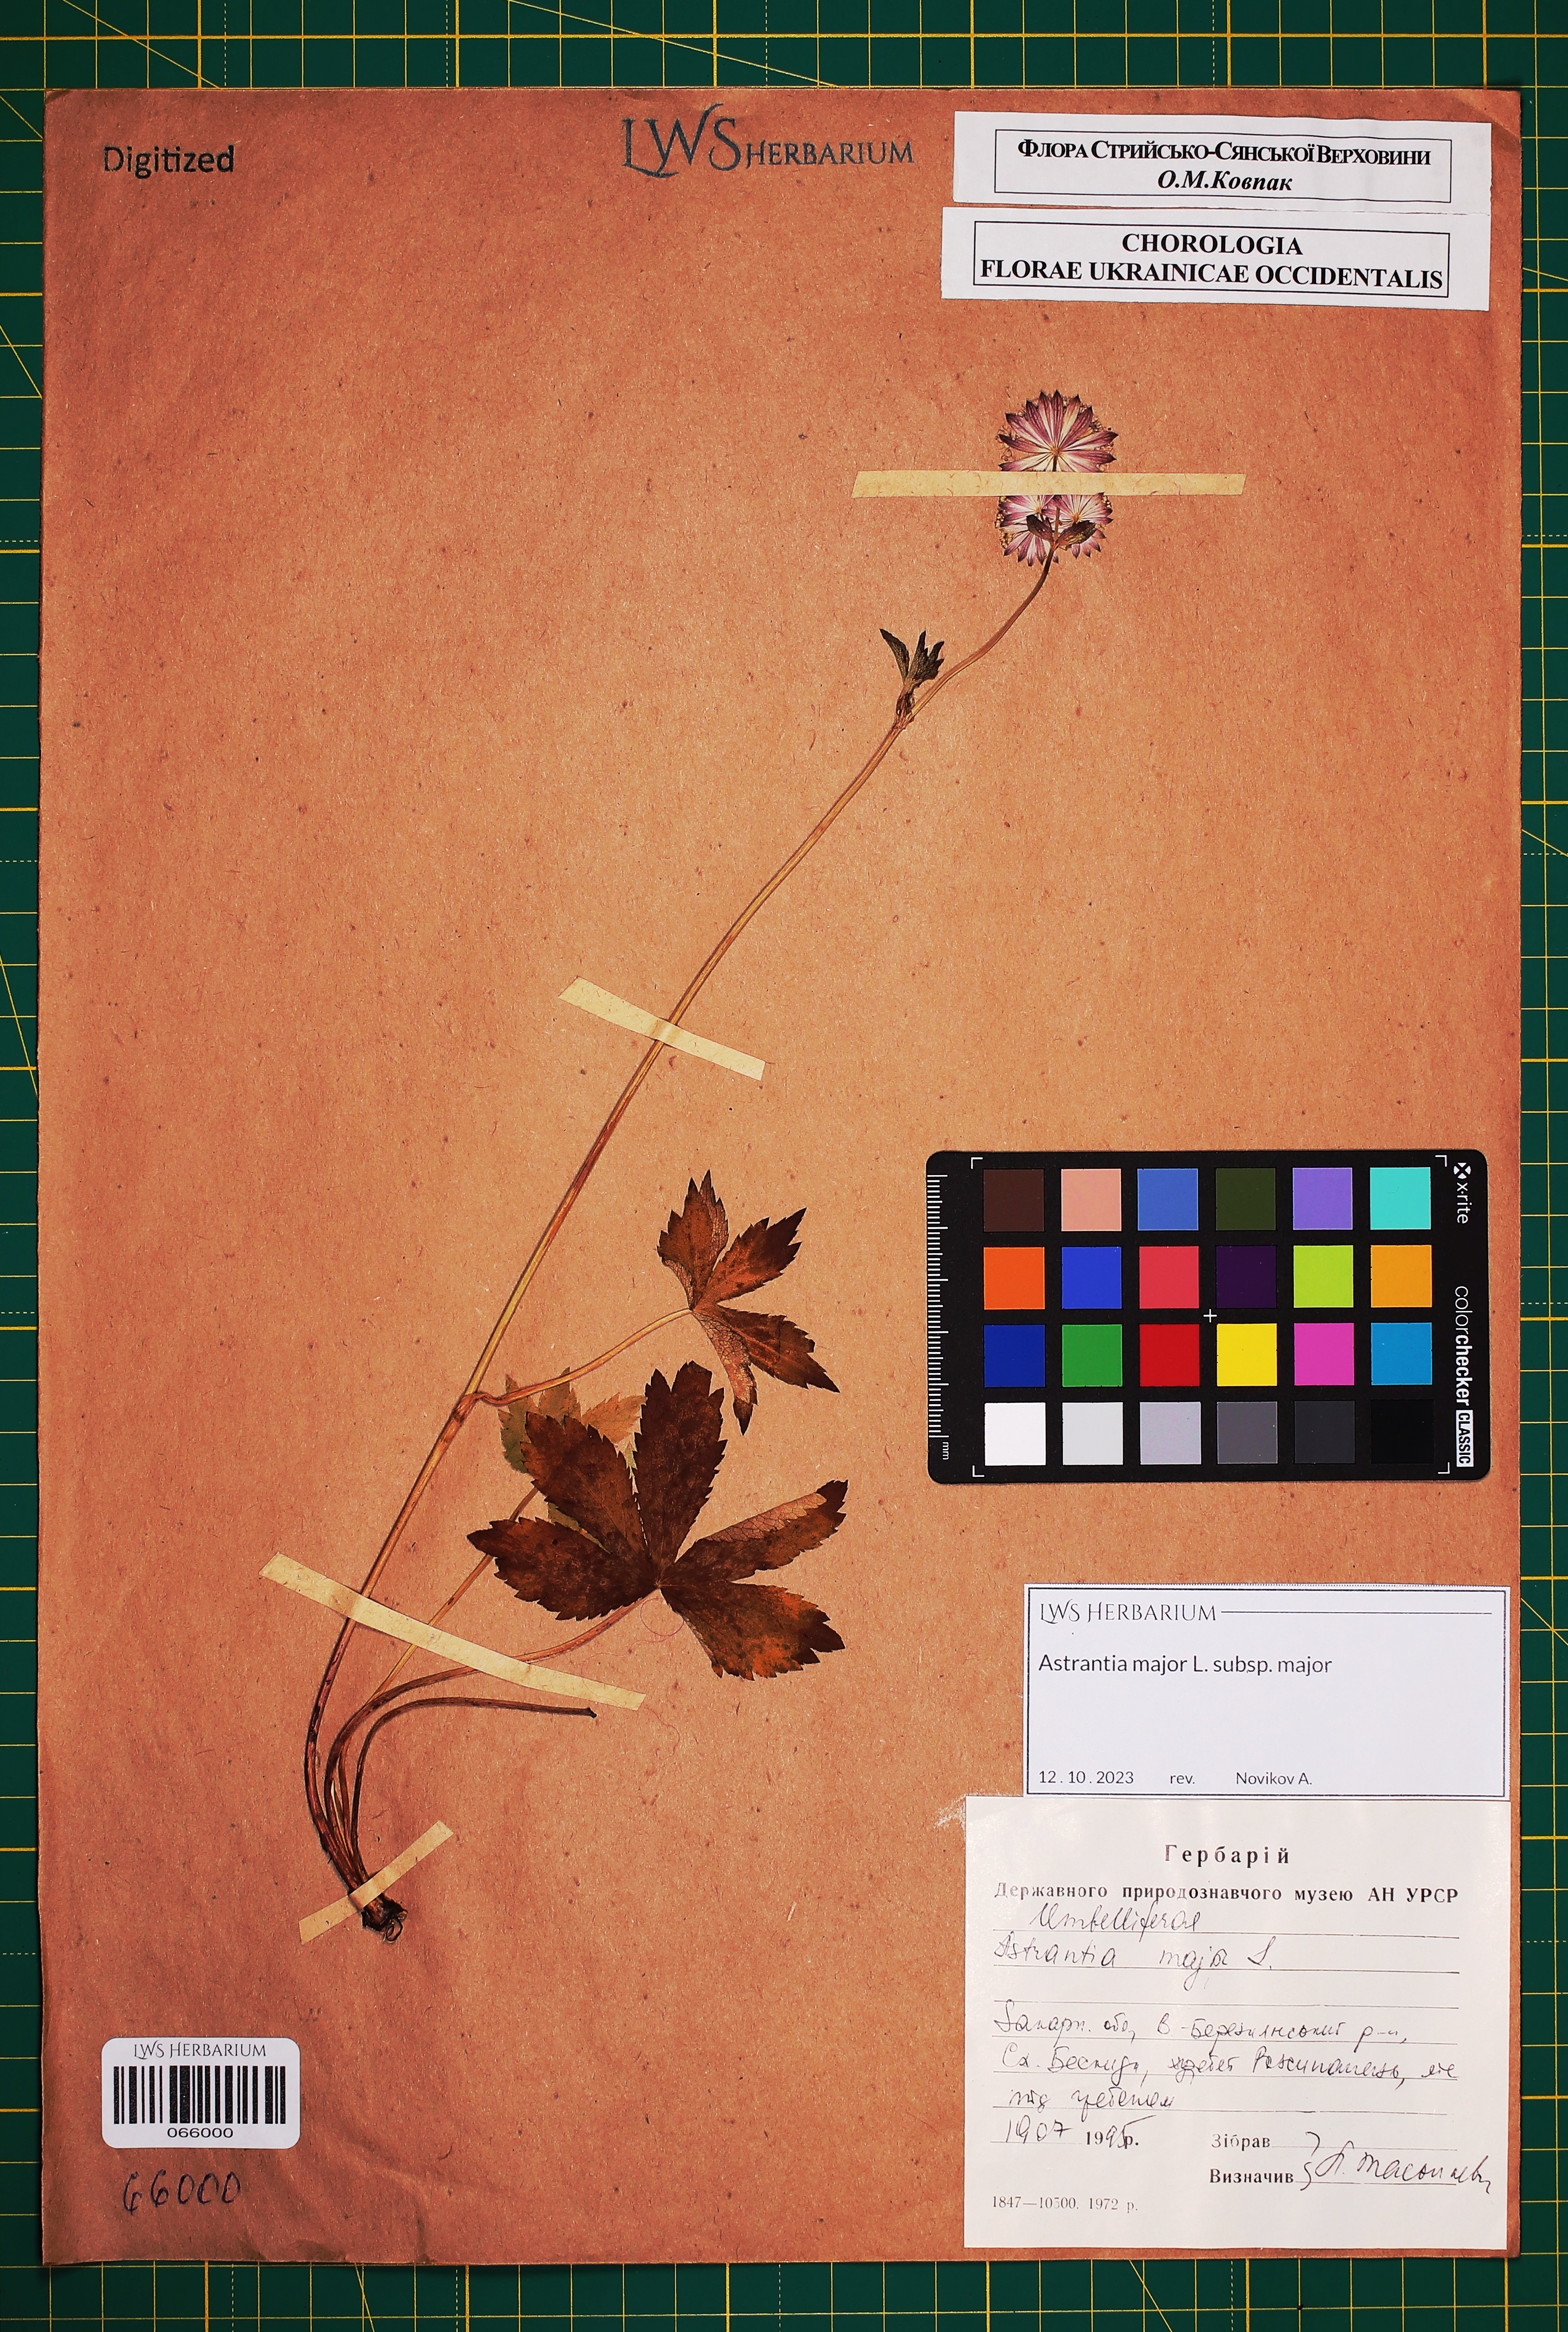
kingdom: Plantae
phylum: Tracheophyta
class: Magnoliopsida
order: Apiales
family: Apiaceae
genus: Astrantia
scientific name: Astrantia major
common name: Greater masterwort
